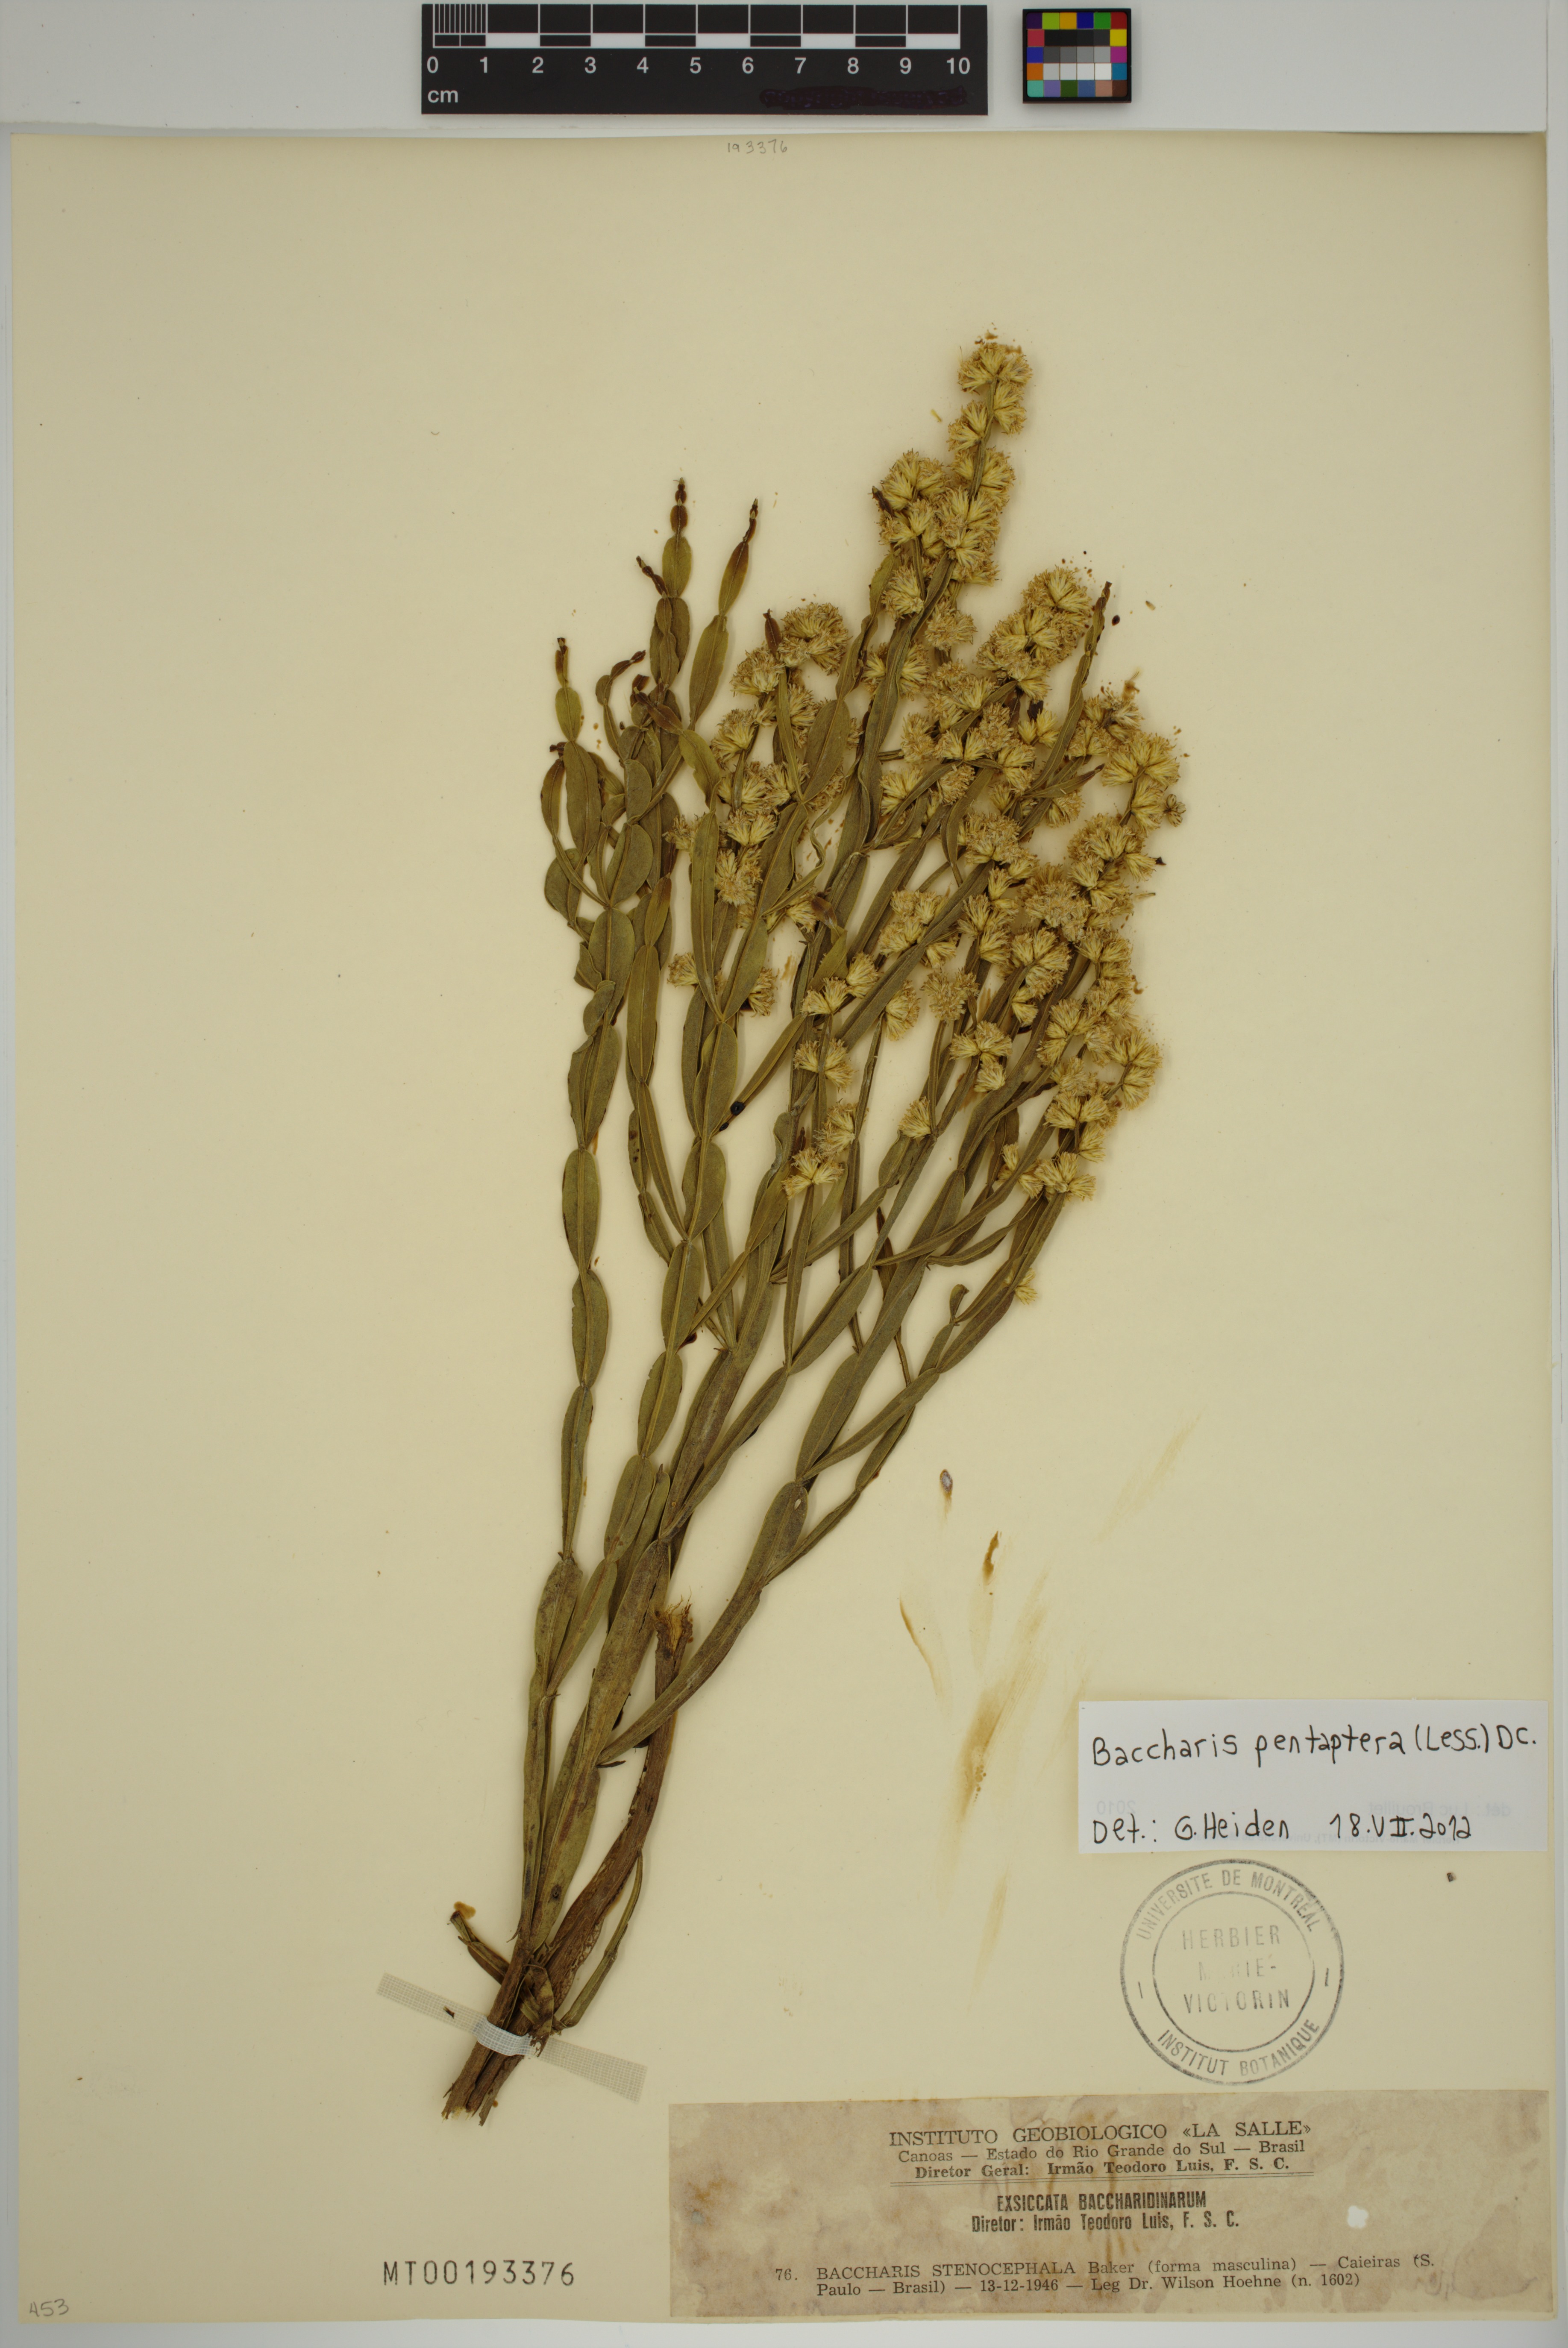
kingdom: Plantae
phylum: Tracheophyta
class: Magnoliopsida
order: Asterales
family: Asteraceae
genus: Baccharis
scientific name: Baccharis pentaptera
